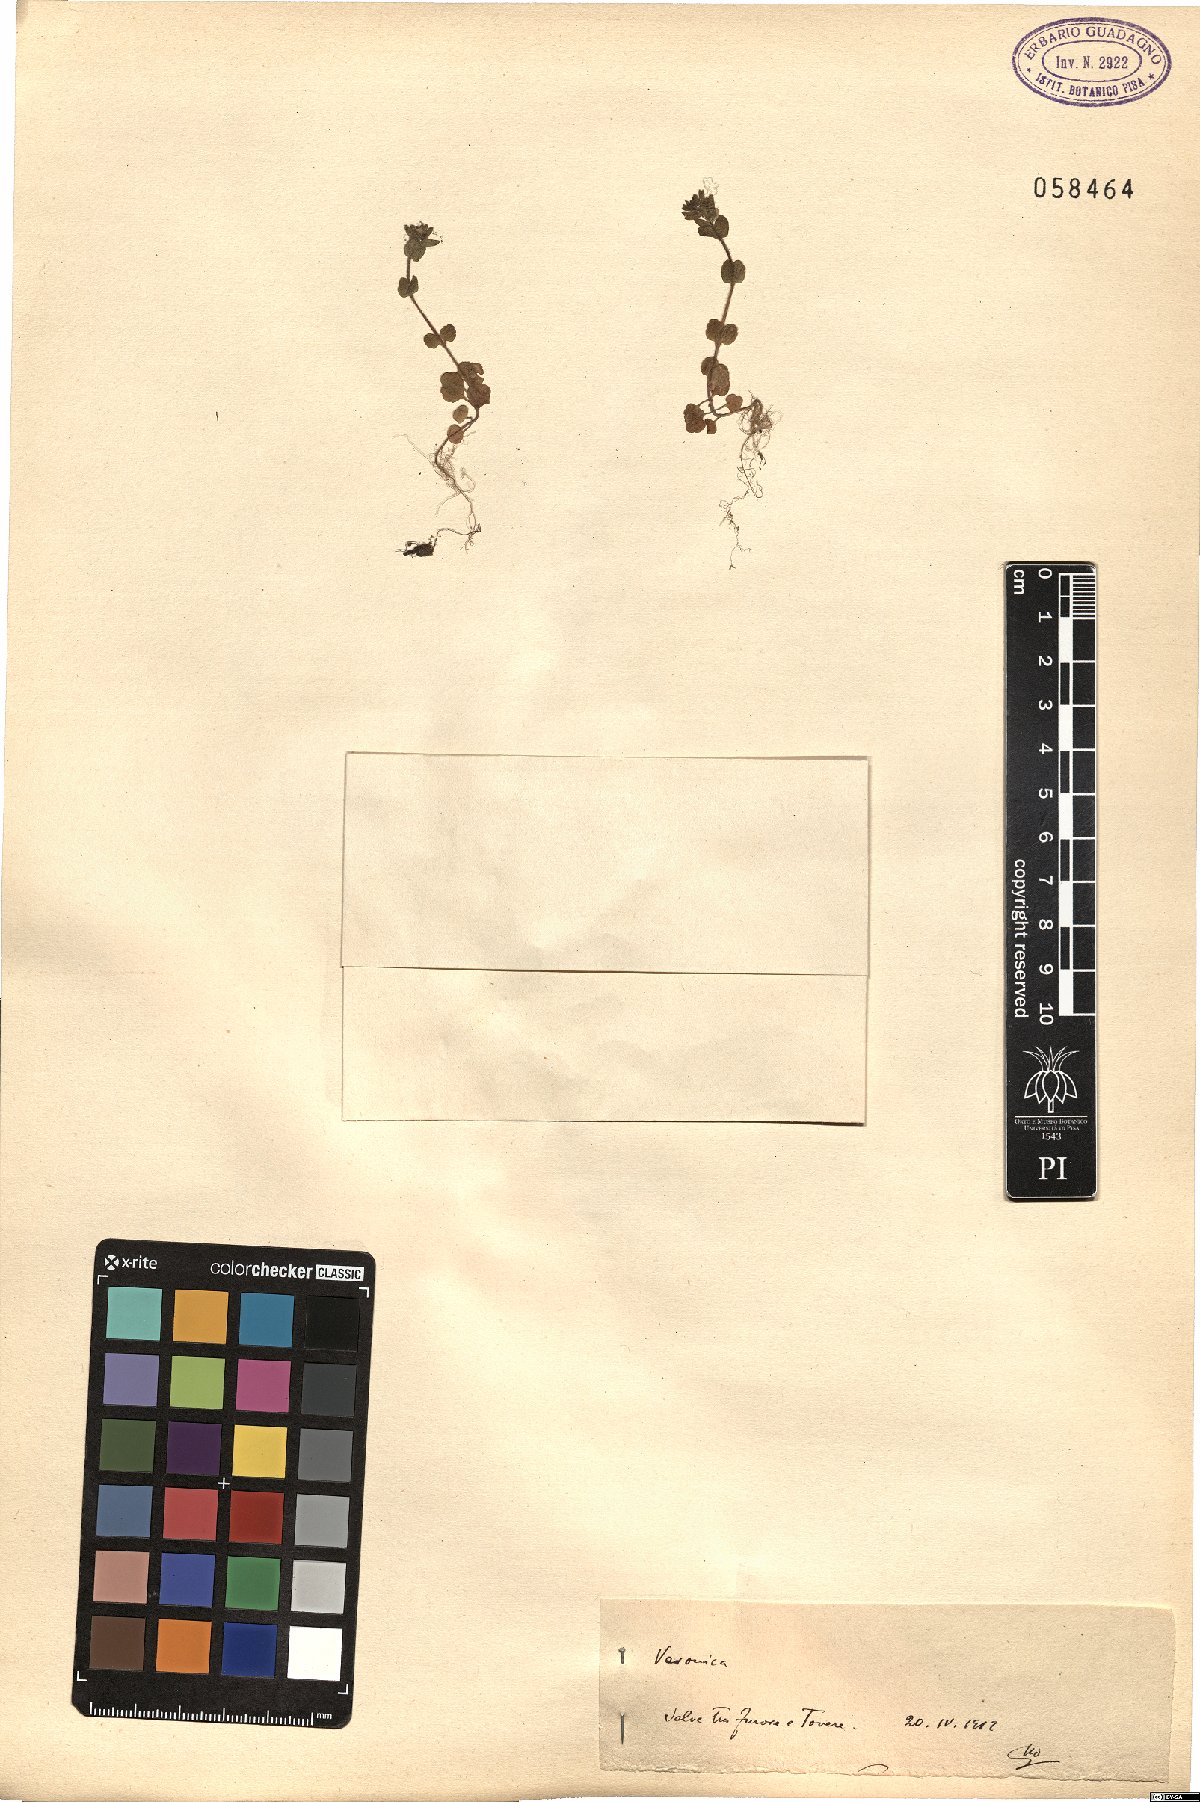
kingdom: Plantae
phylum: Tracheophyta
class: Magnoliopsida
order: Lamiales
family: Plantaginaceae
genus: Veronica
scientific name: Veronica
